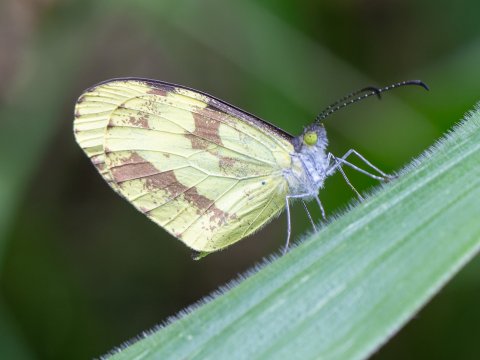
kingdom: Animalia
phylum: Arthropoda
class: Insecta
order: Lepidoptera
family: Pieridae
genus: Dismorphia
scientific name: Dismorphia medora
